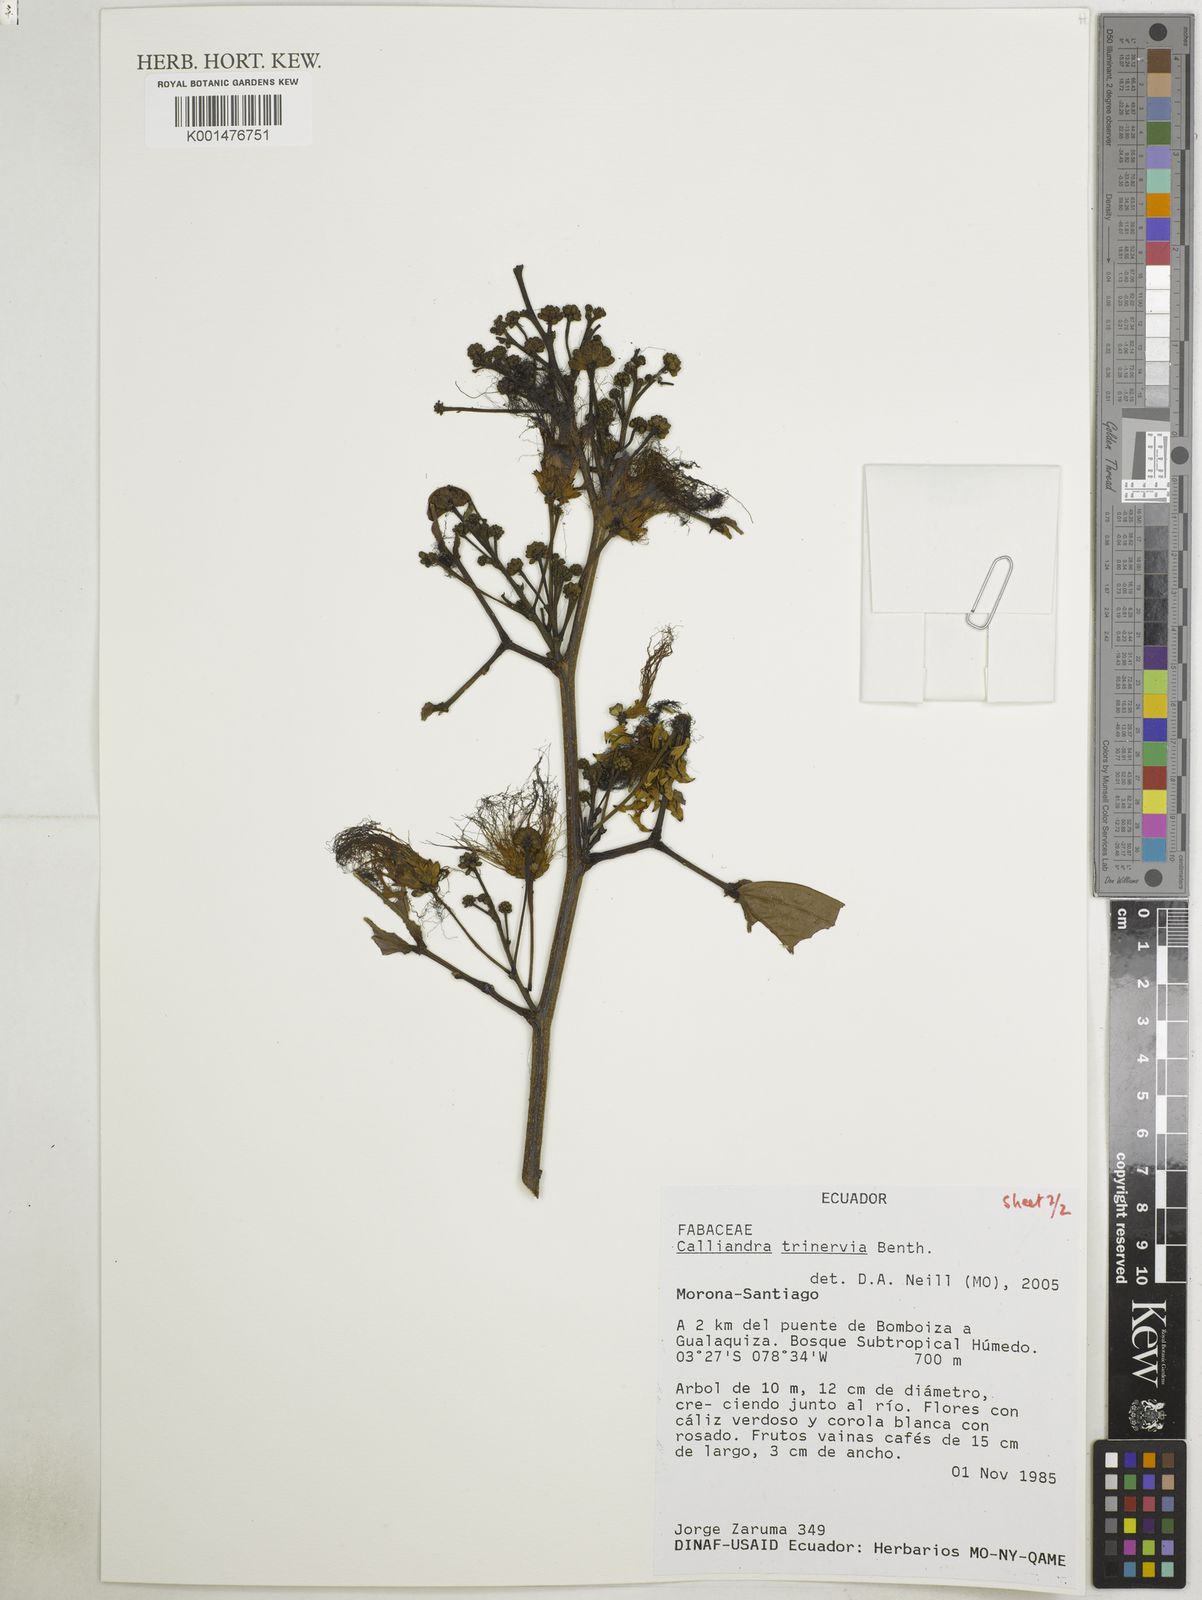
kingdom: Plantae
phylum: Tracheophyta
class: Magnoliopsida
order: Fabales
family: Fabaceae
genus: Calliandra
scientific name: Calliandra trinervia
